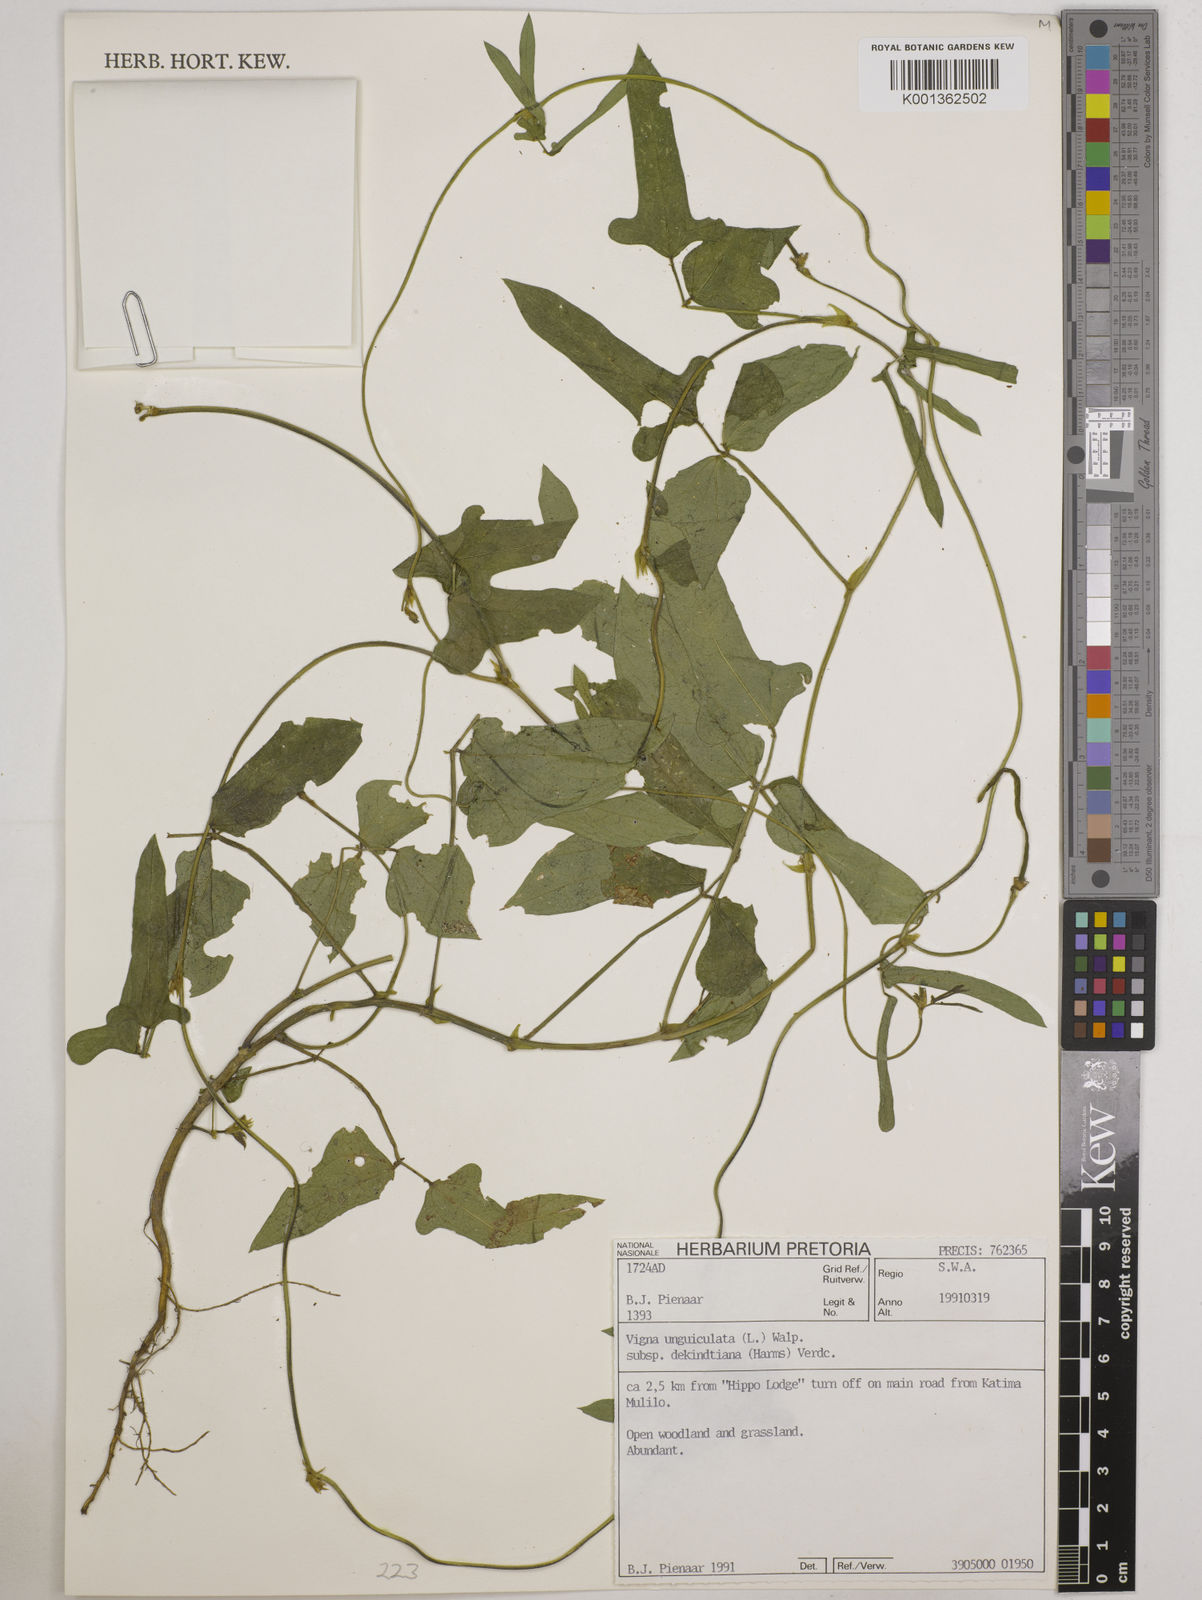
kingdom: Plantae
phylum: Tracheophyta
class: Magnoliopsida
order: Fabales
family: Fabaceae
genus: Vigna
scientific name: Vigna
